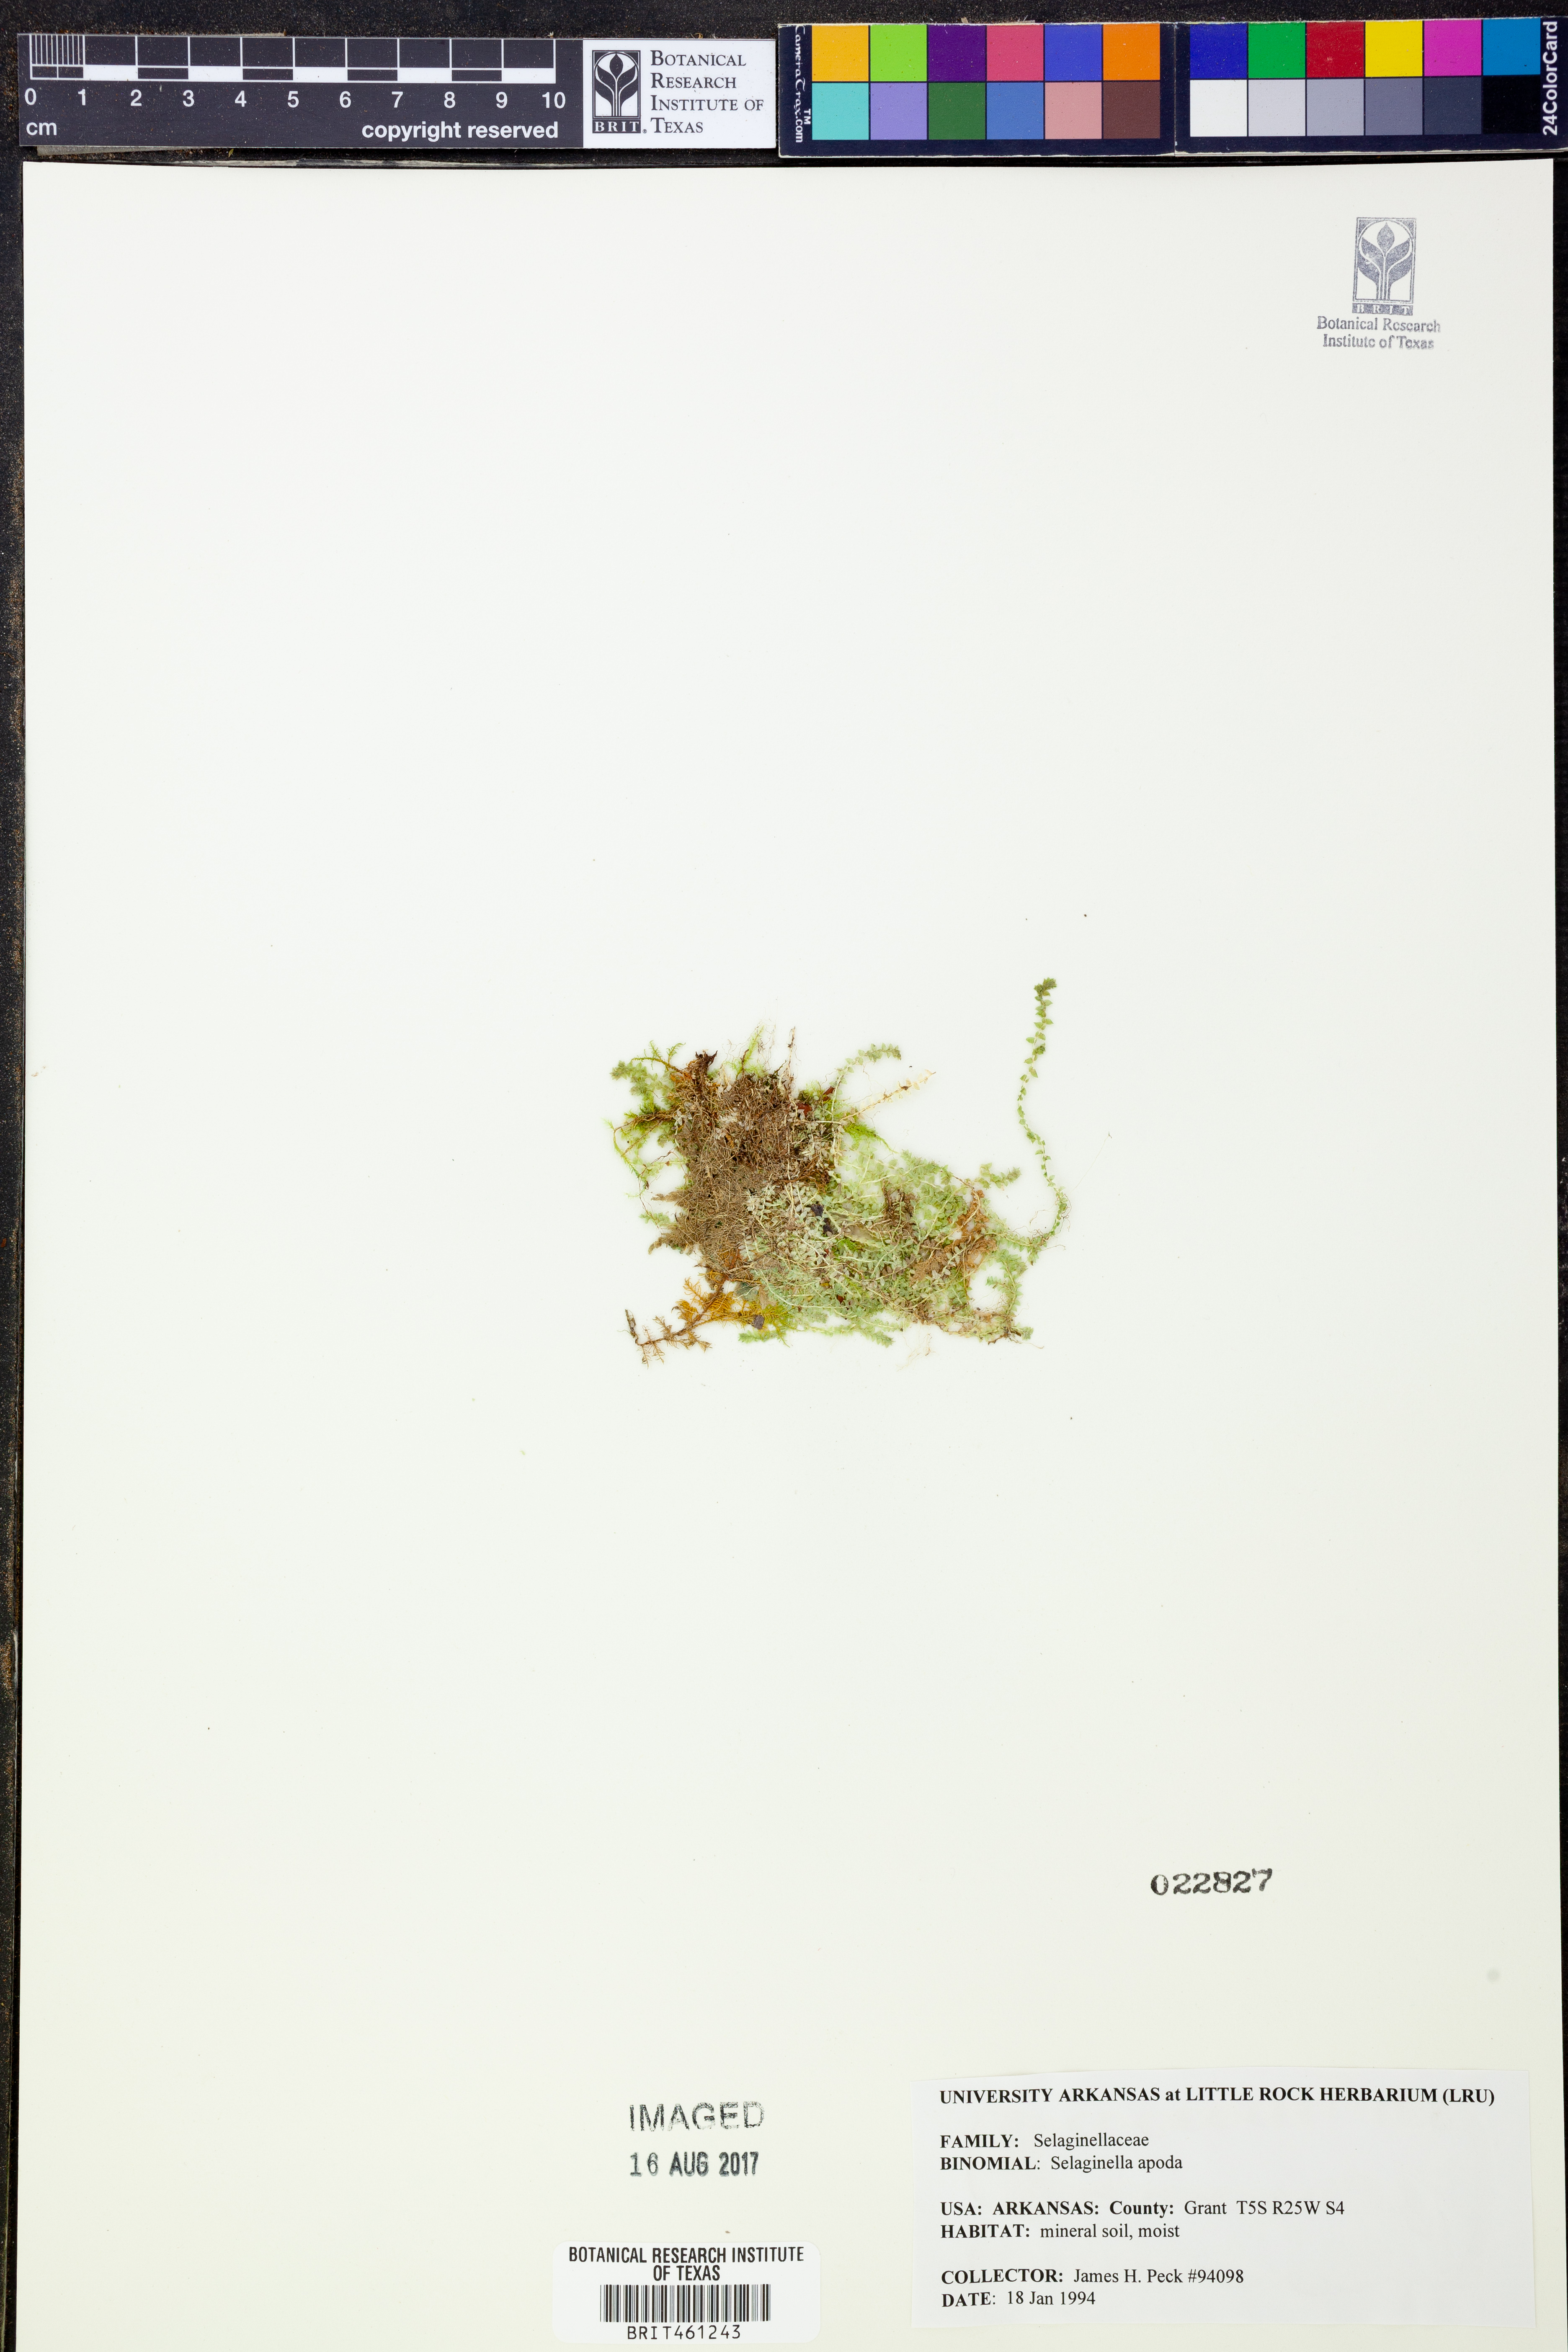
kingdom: Plantae
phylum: Tracheophyta
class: Lycopodiopsida
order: Selaginellales
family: Selaginellaceae
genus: Selaginella
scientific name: Selaginella apoda
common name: Creeping spikemoss
